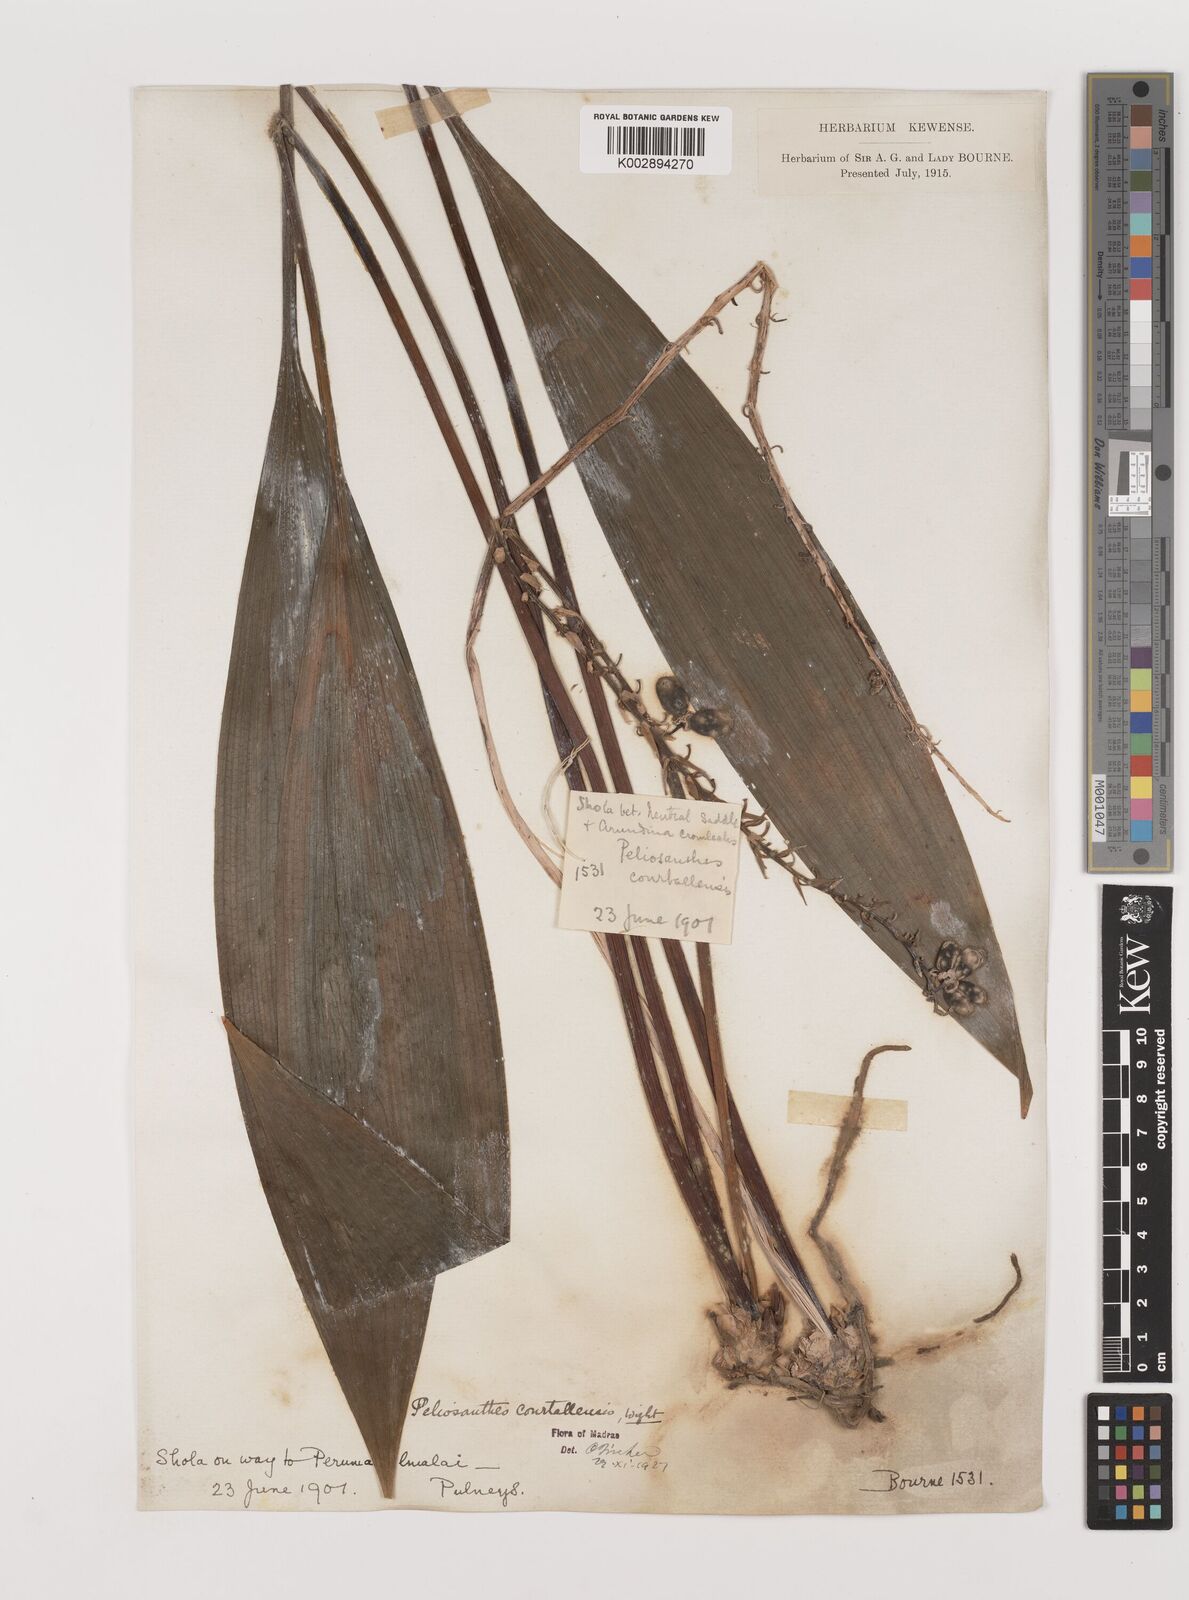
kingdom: Plantae
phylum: Tracheophyta
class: Liliopsida
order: Asparagales
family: Asparagaceae
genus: Peliosanthes
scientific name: Peliosanthes teta
